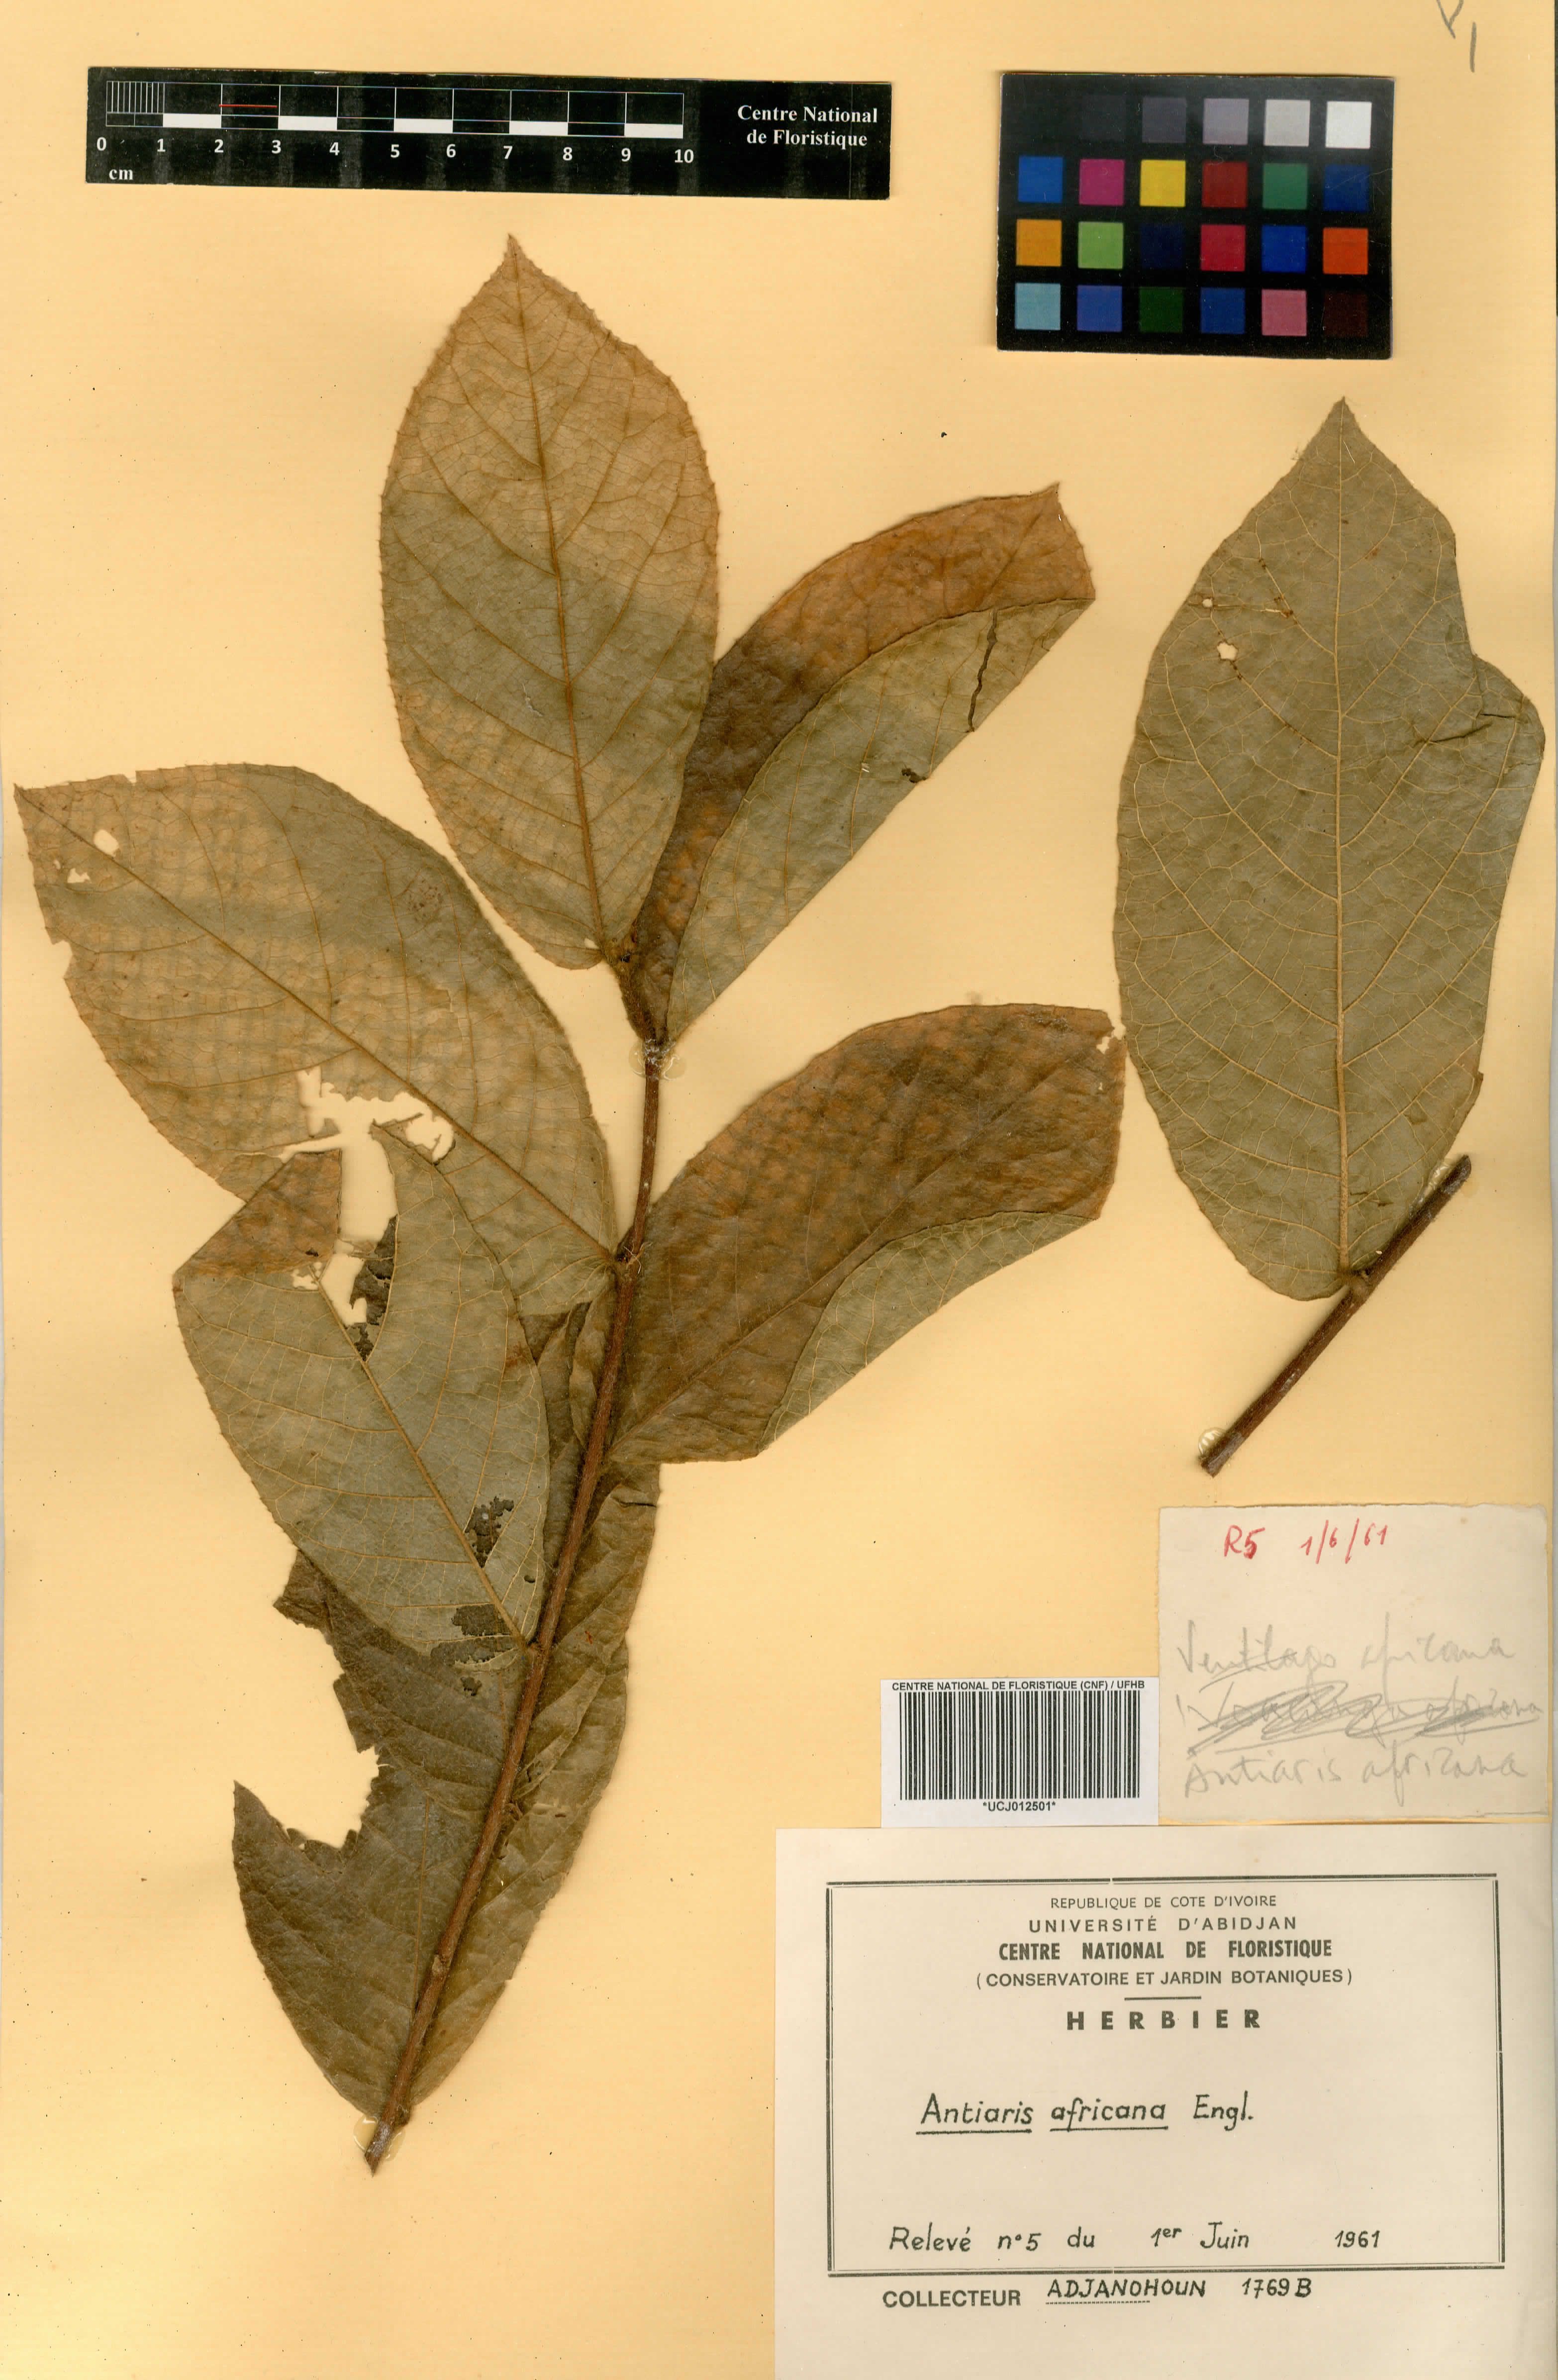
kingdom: Plantae
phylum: Tracheophyta
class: Magnoliopsida
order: Rosales
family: Moraceae
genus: Antiaris
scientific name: Antiaris toxicaria
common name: Sackingtree
